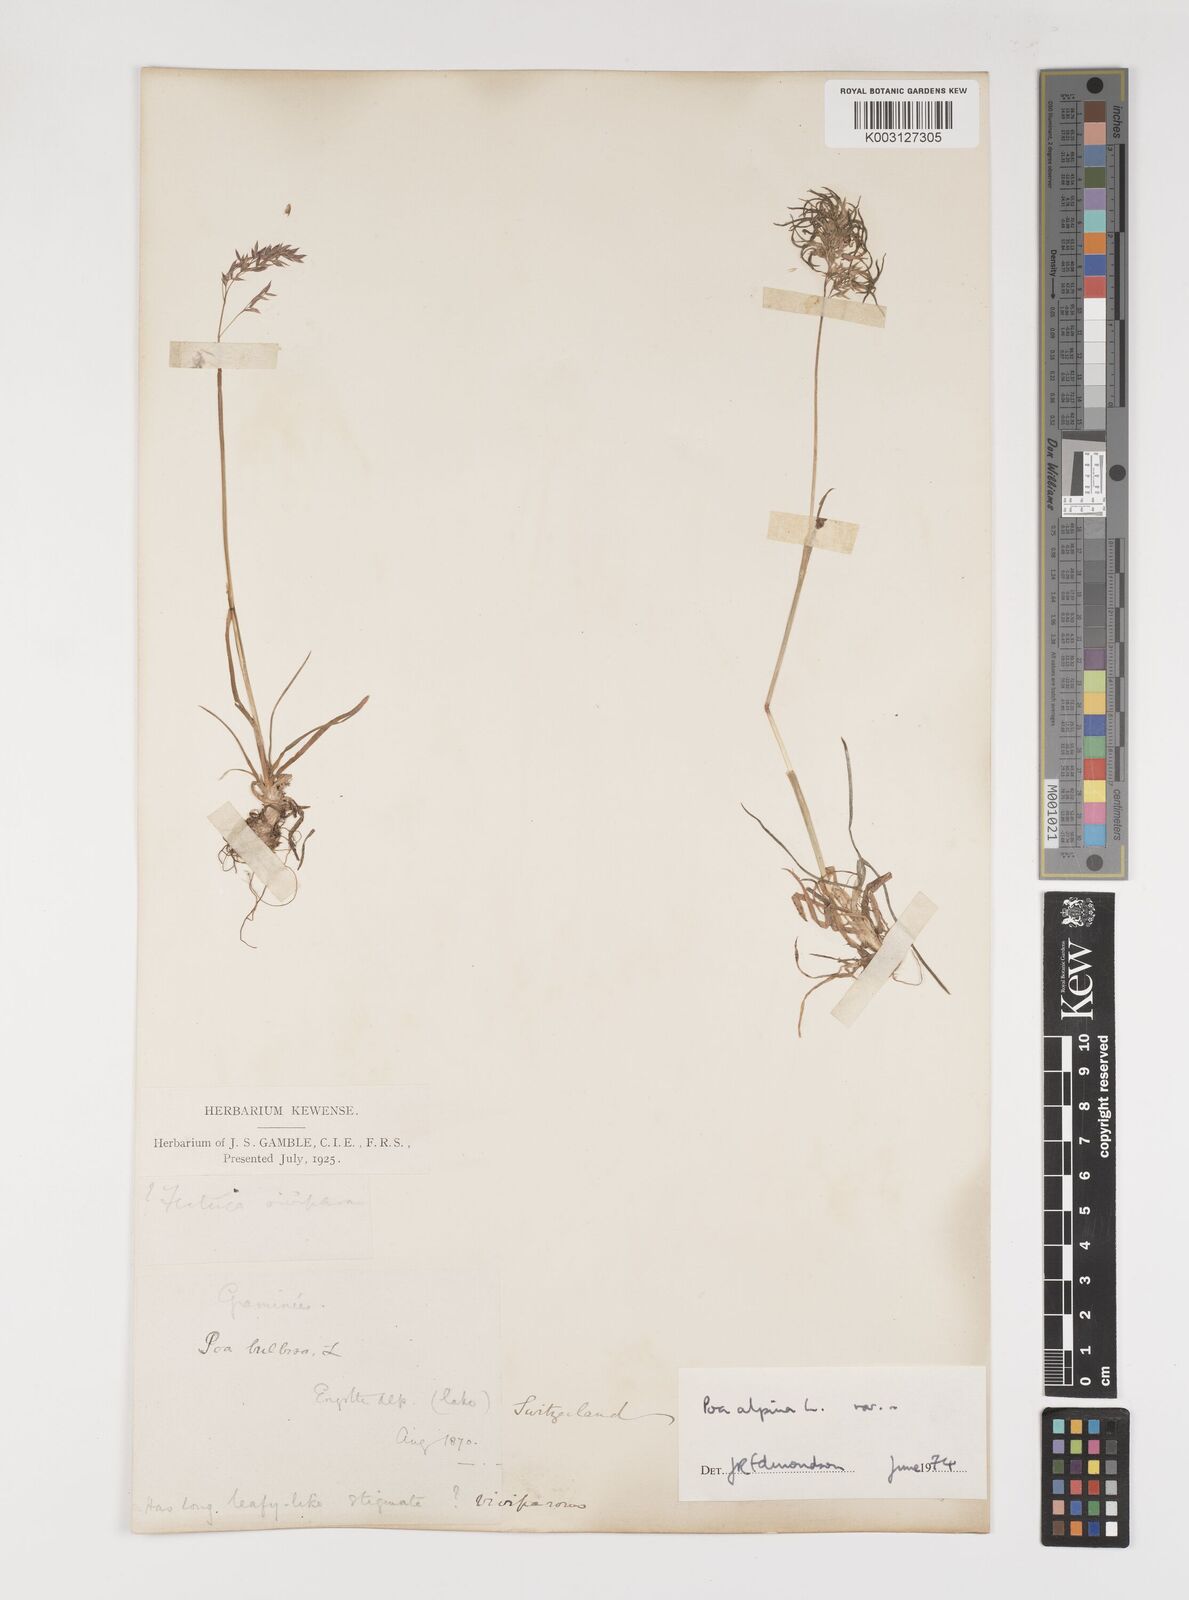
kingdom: Plantae
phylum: Tracheophyta
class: Liliopsida
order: Poales
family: Poaceae
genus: Poa
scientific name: Poa alpina
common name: Alpine bluegrass
